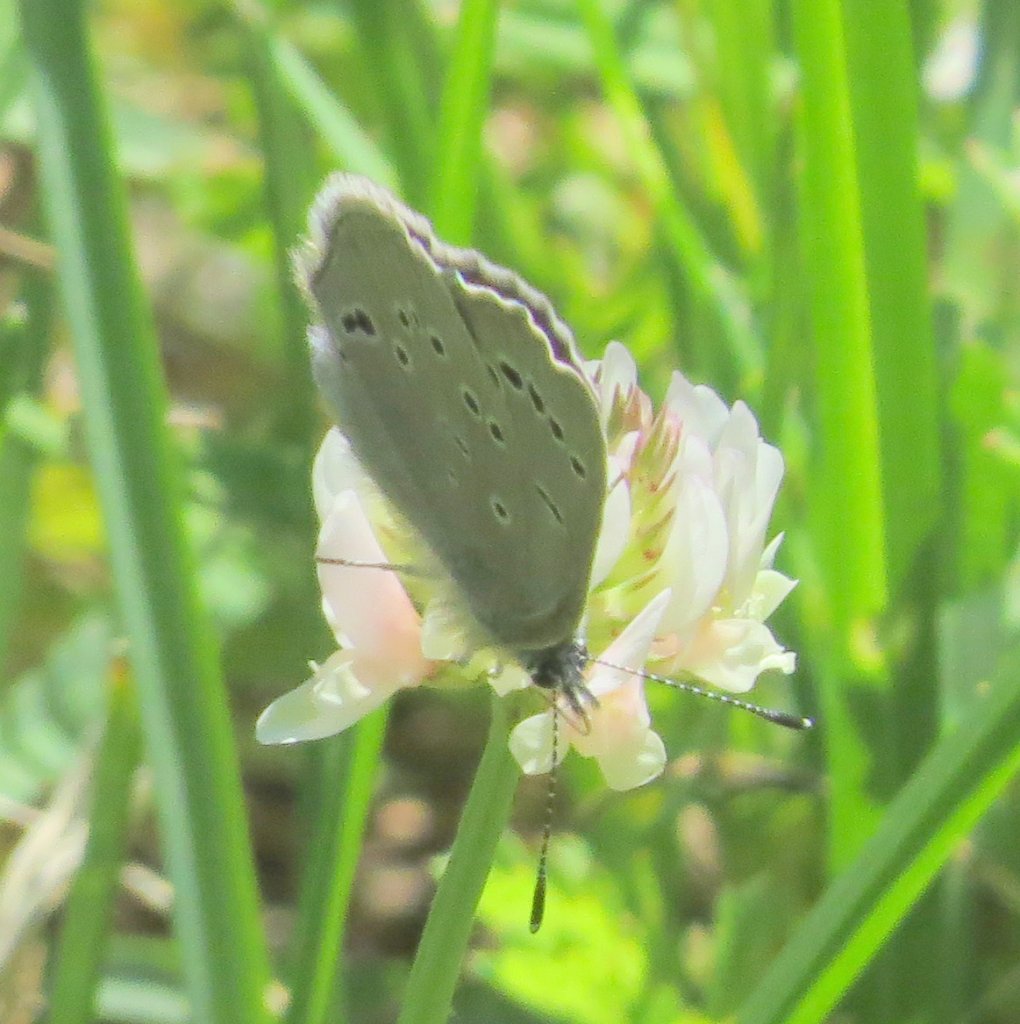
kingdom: Animalia
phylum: Arthropoda
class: Insecta
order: Lepidoptera
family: Lycaenidae
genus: Glaucopsyche
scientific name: Glaucopsyche lygdamus
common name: Silvery Blue
